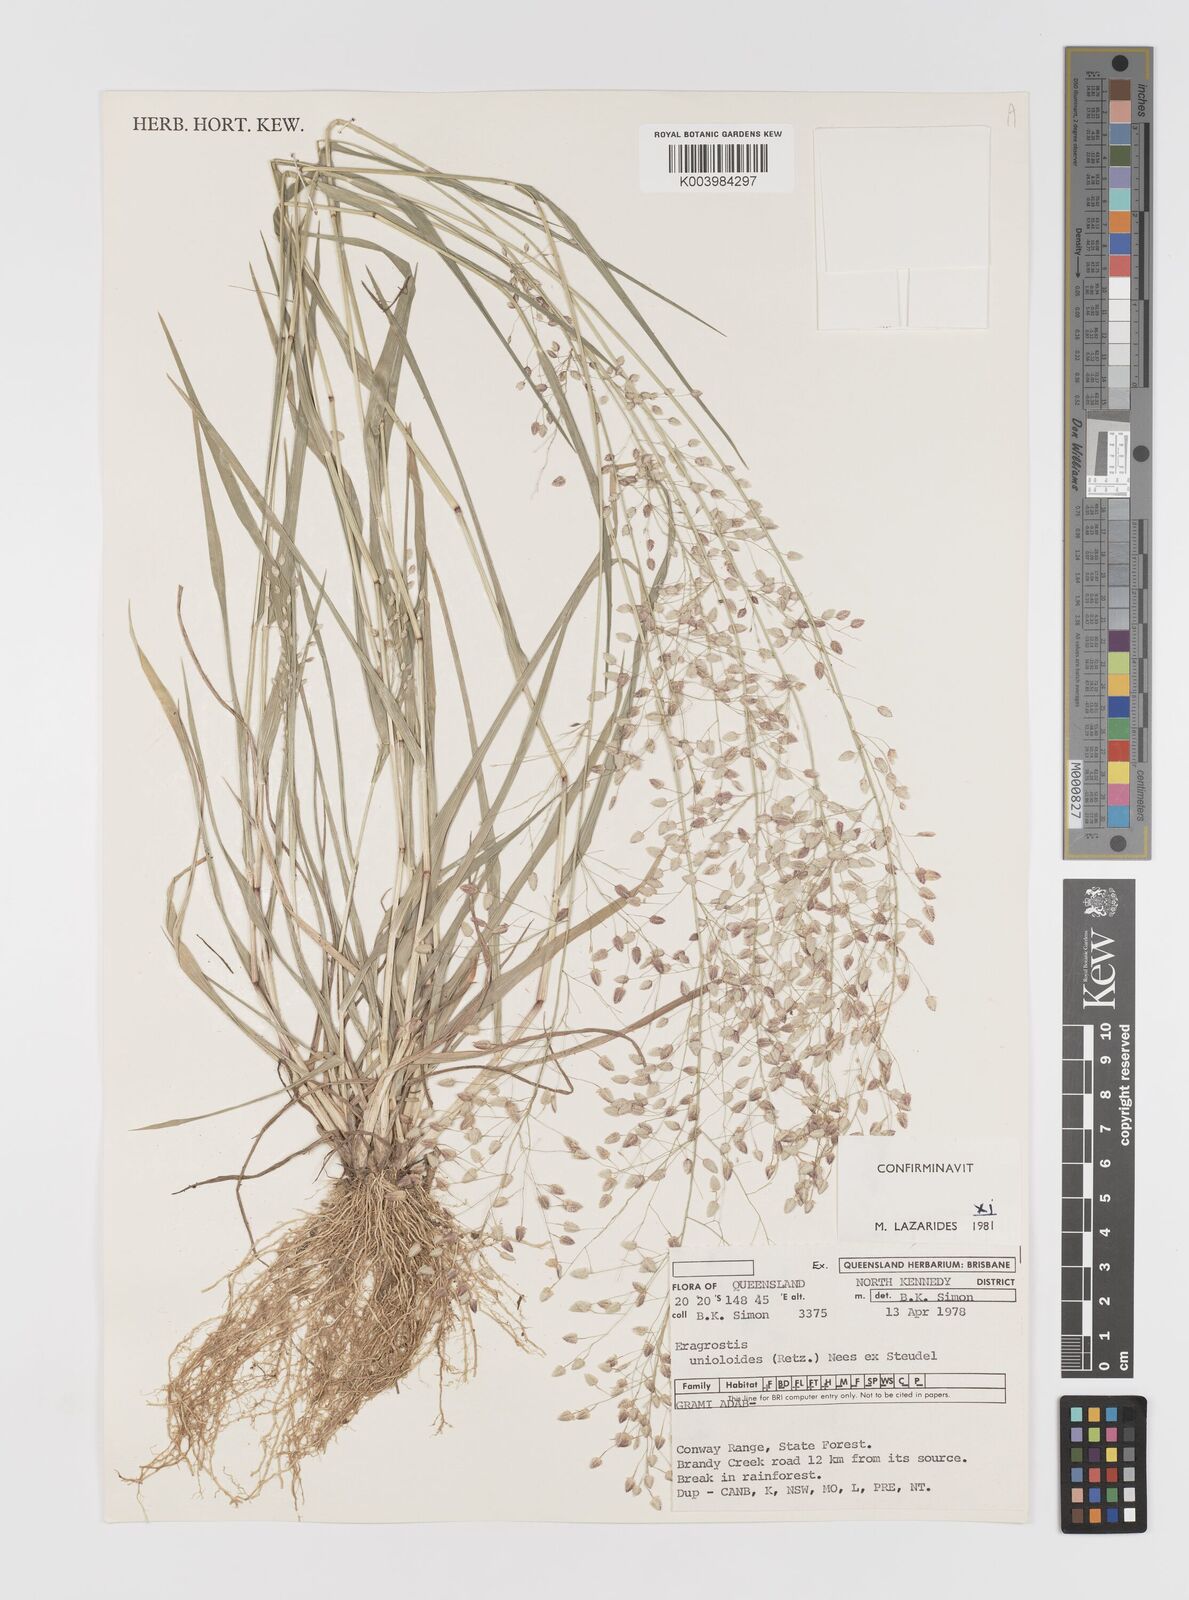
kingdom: Plantae
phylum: Tracheophyta
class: Liliopsida
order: Poales
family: Poaceae
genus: Eragrostis
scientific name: Eragrostis unioloides
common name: Chinese lovegrass
